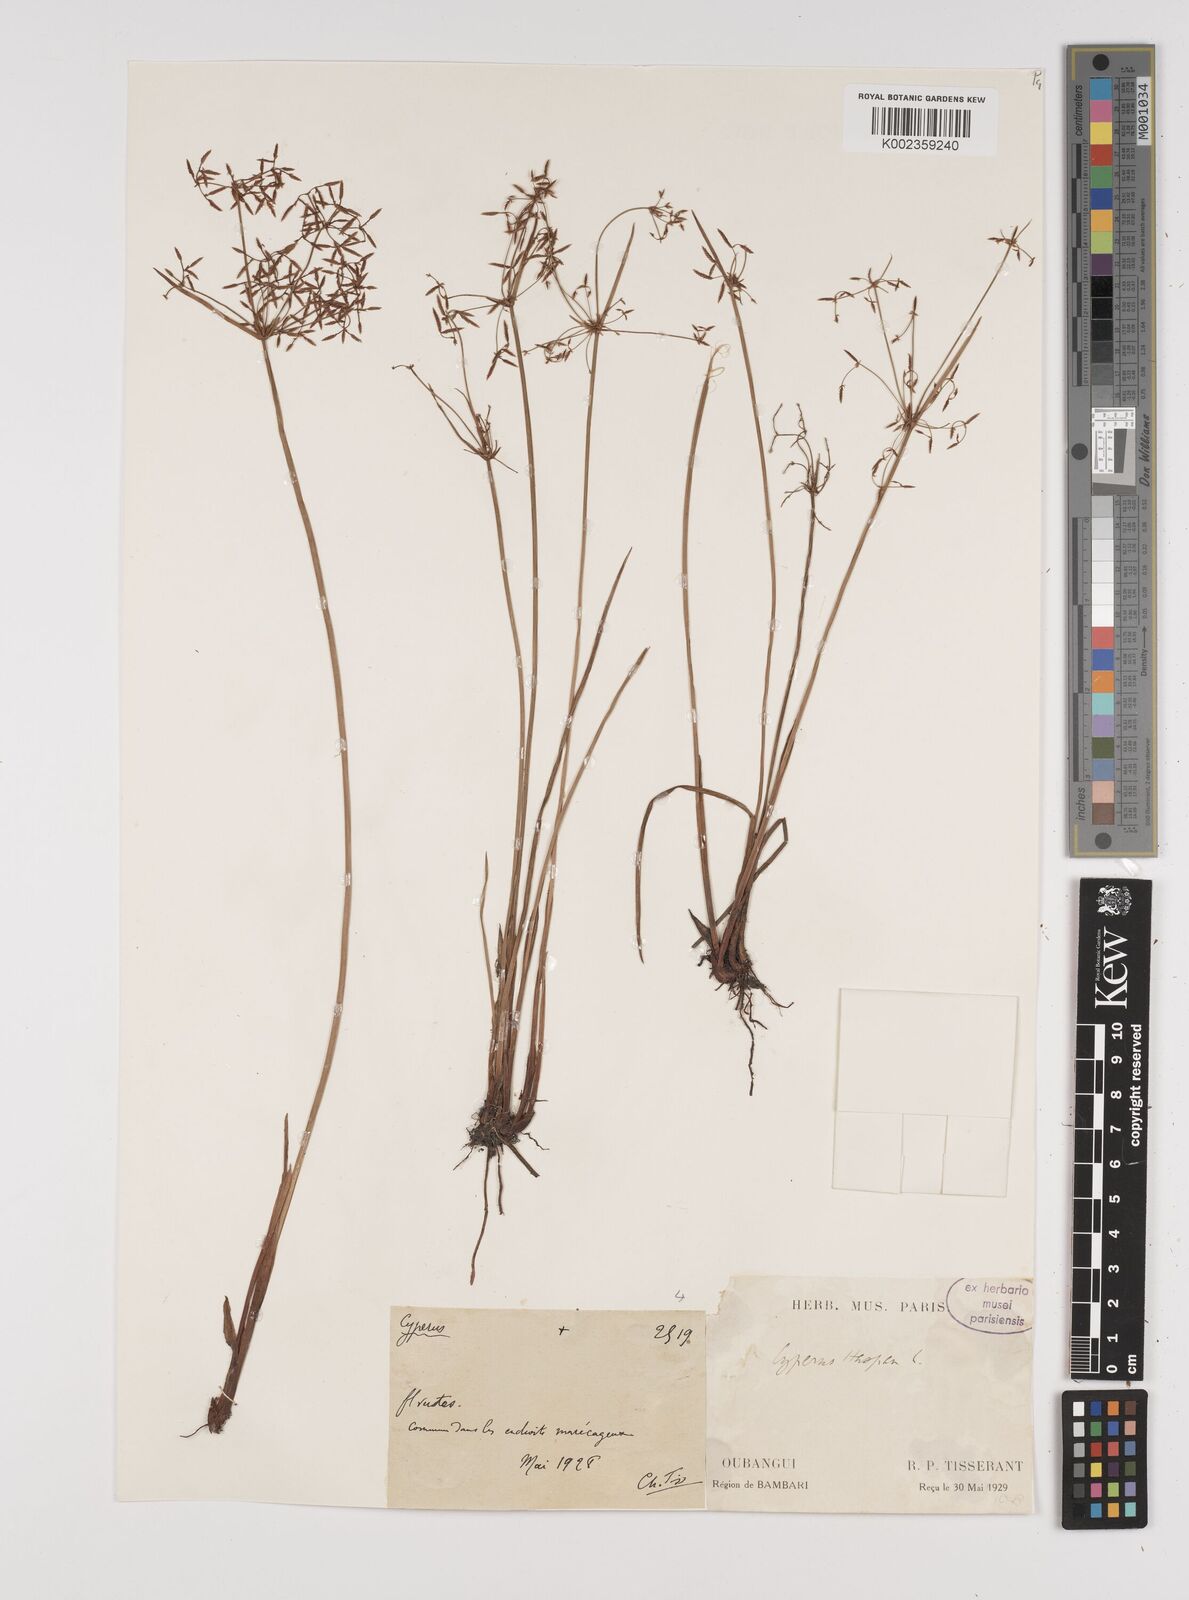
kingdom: Plantae
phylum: Tracheophyta
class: Liliopsida
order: Poales
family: Cyperaceae
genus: Cyperus
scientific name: Cyperus haspan
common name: Haspan flatsedge
